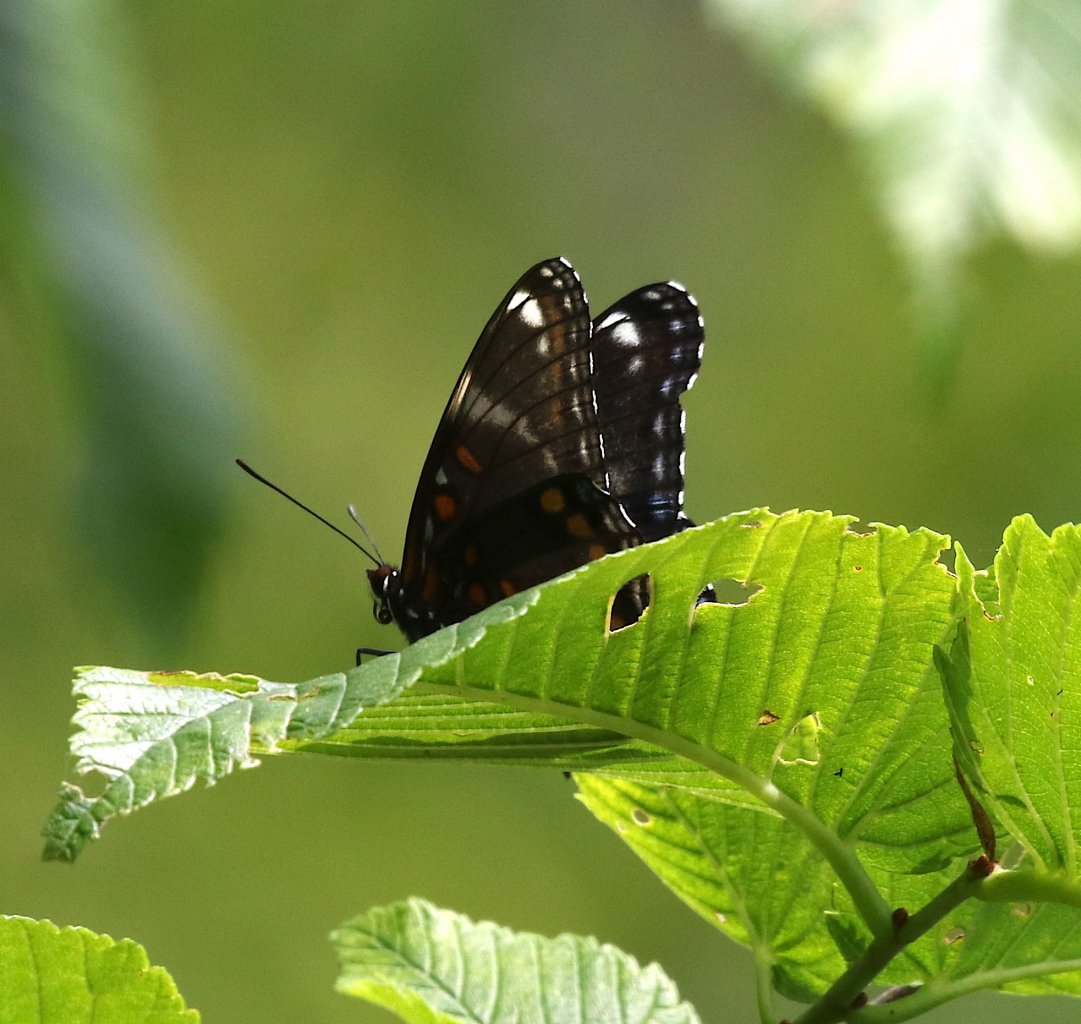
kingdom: Animalia
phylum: Arthropoda
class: Insecta
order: Lepidoptera
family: Nymphalidae
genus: Limenitis
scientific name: Limenitis
